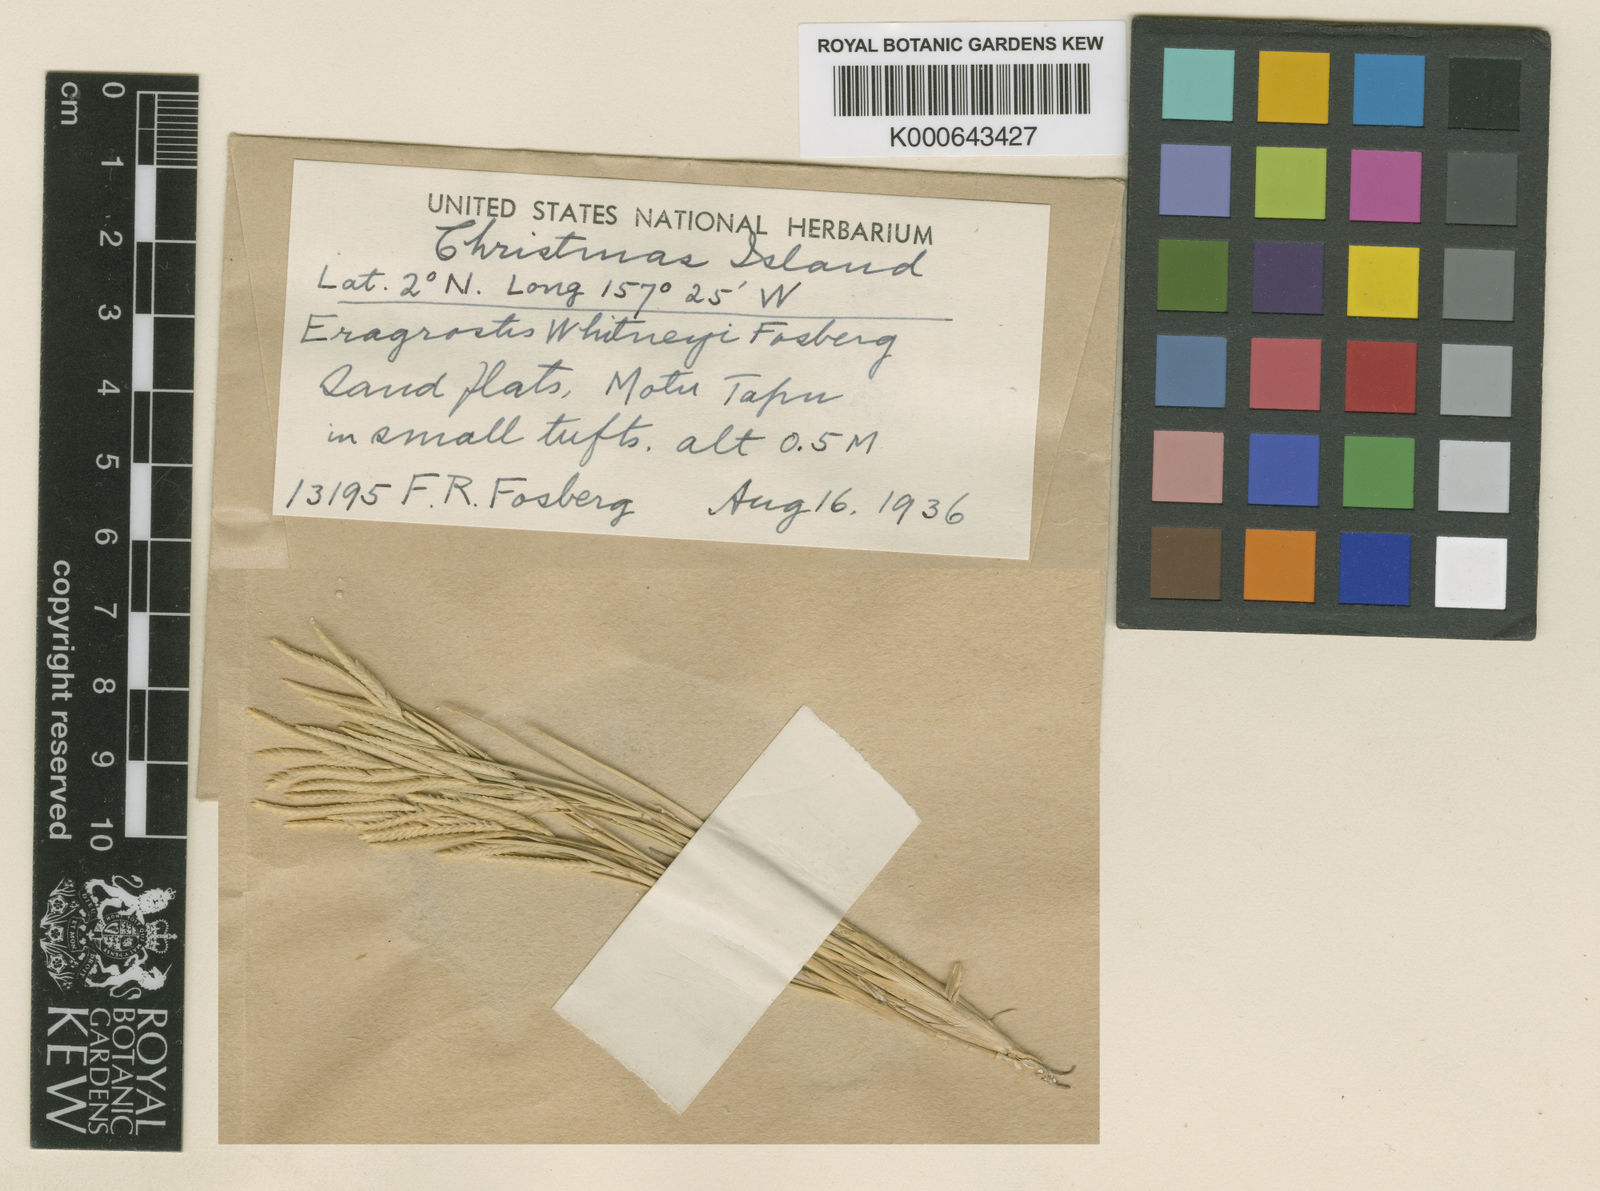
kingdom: Plantae
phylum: Tracheophyta
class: Liliopsida
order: Poales
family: Poaceae
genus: Eragrostis
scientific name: Eragrostis parviflora
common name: Weeping love-grass
